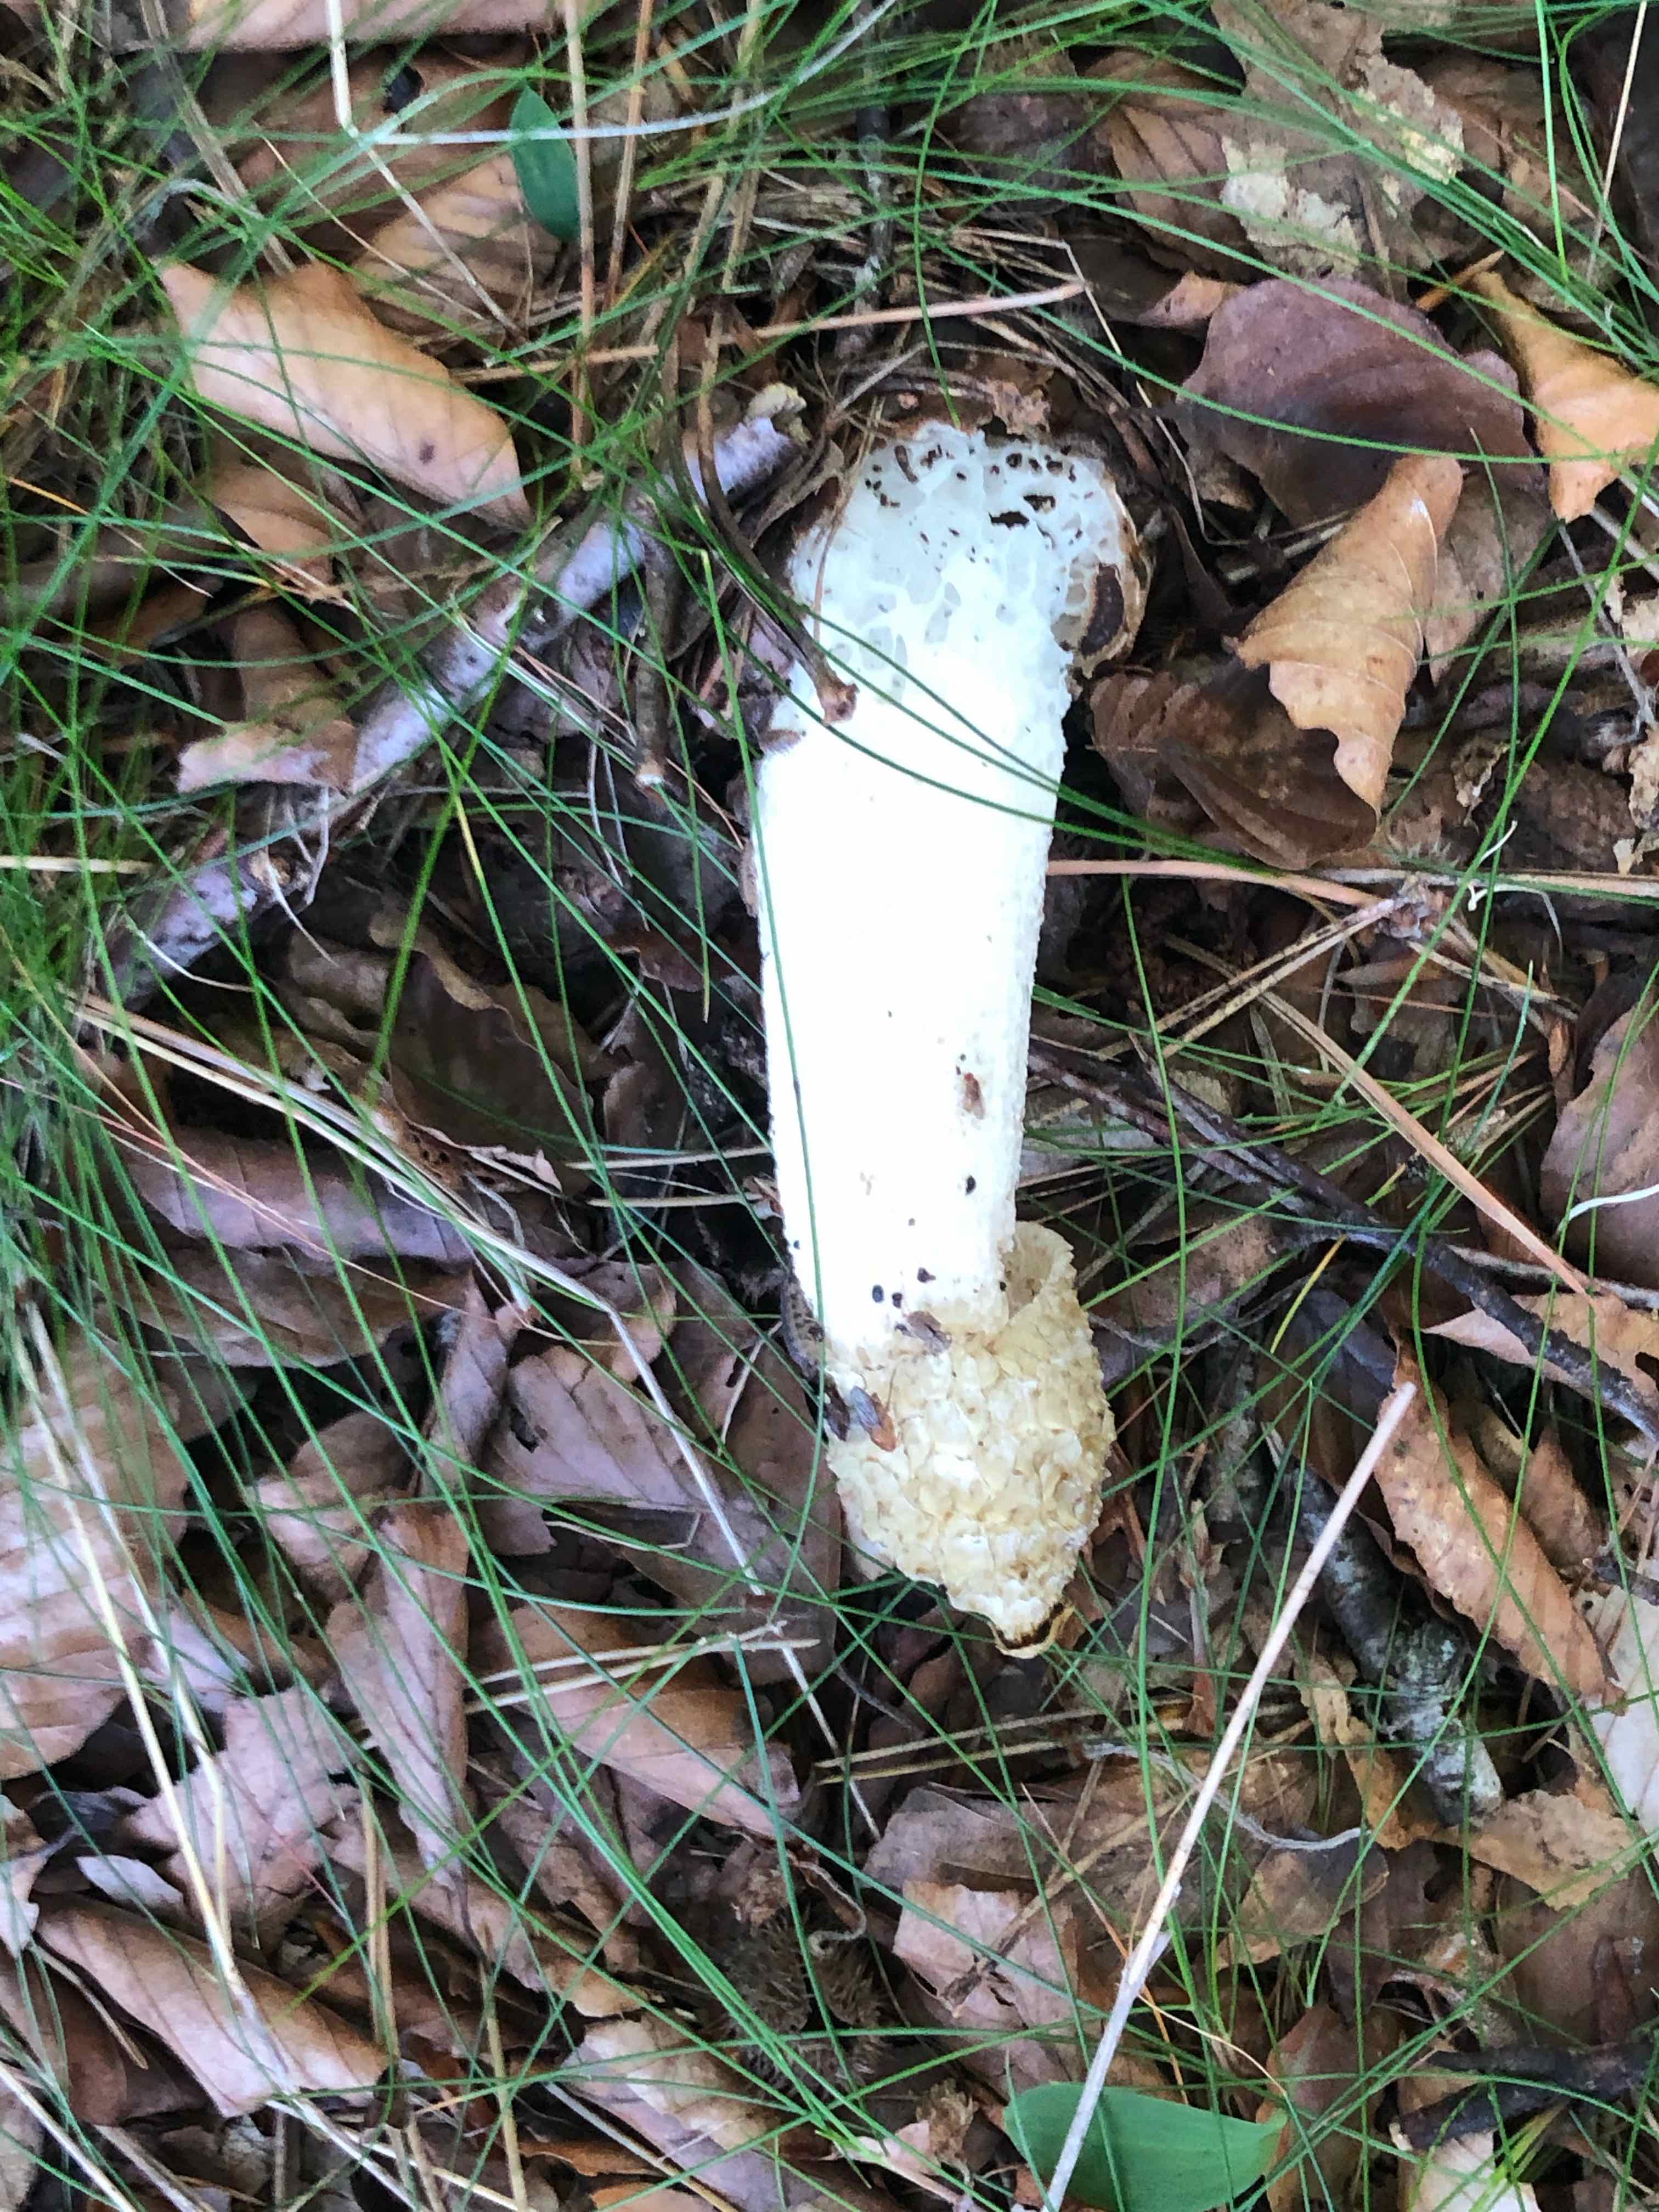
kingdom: Fungi
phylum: Basidiomycota
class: Agaricomycetes
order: Phallales
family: Phallaceae
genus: Phallus
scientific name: Phallus impudicus
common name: almindelig stinksvamp
